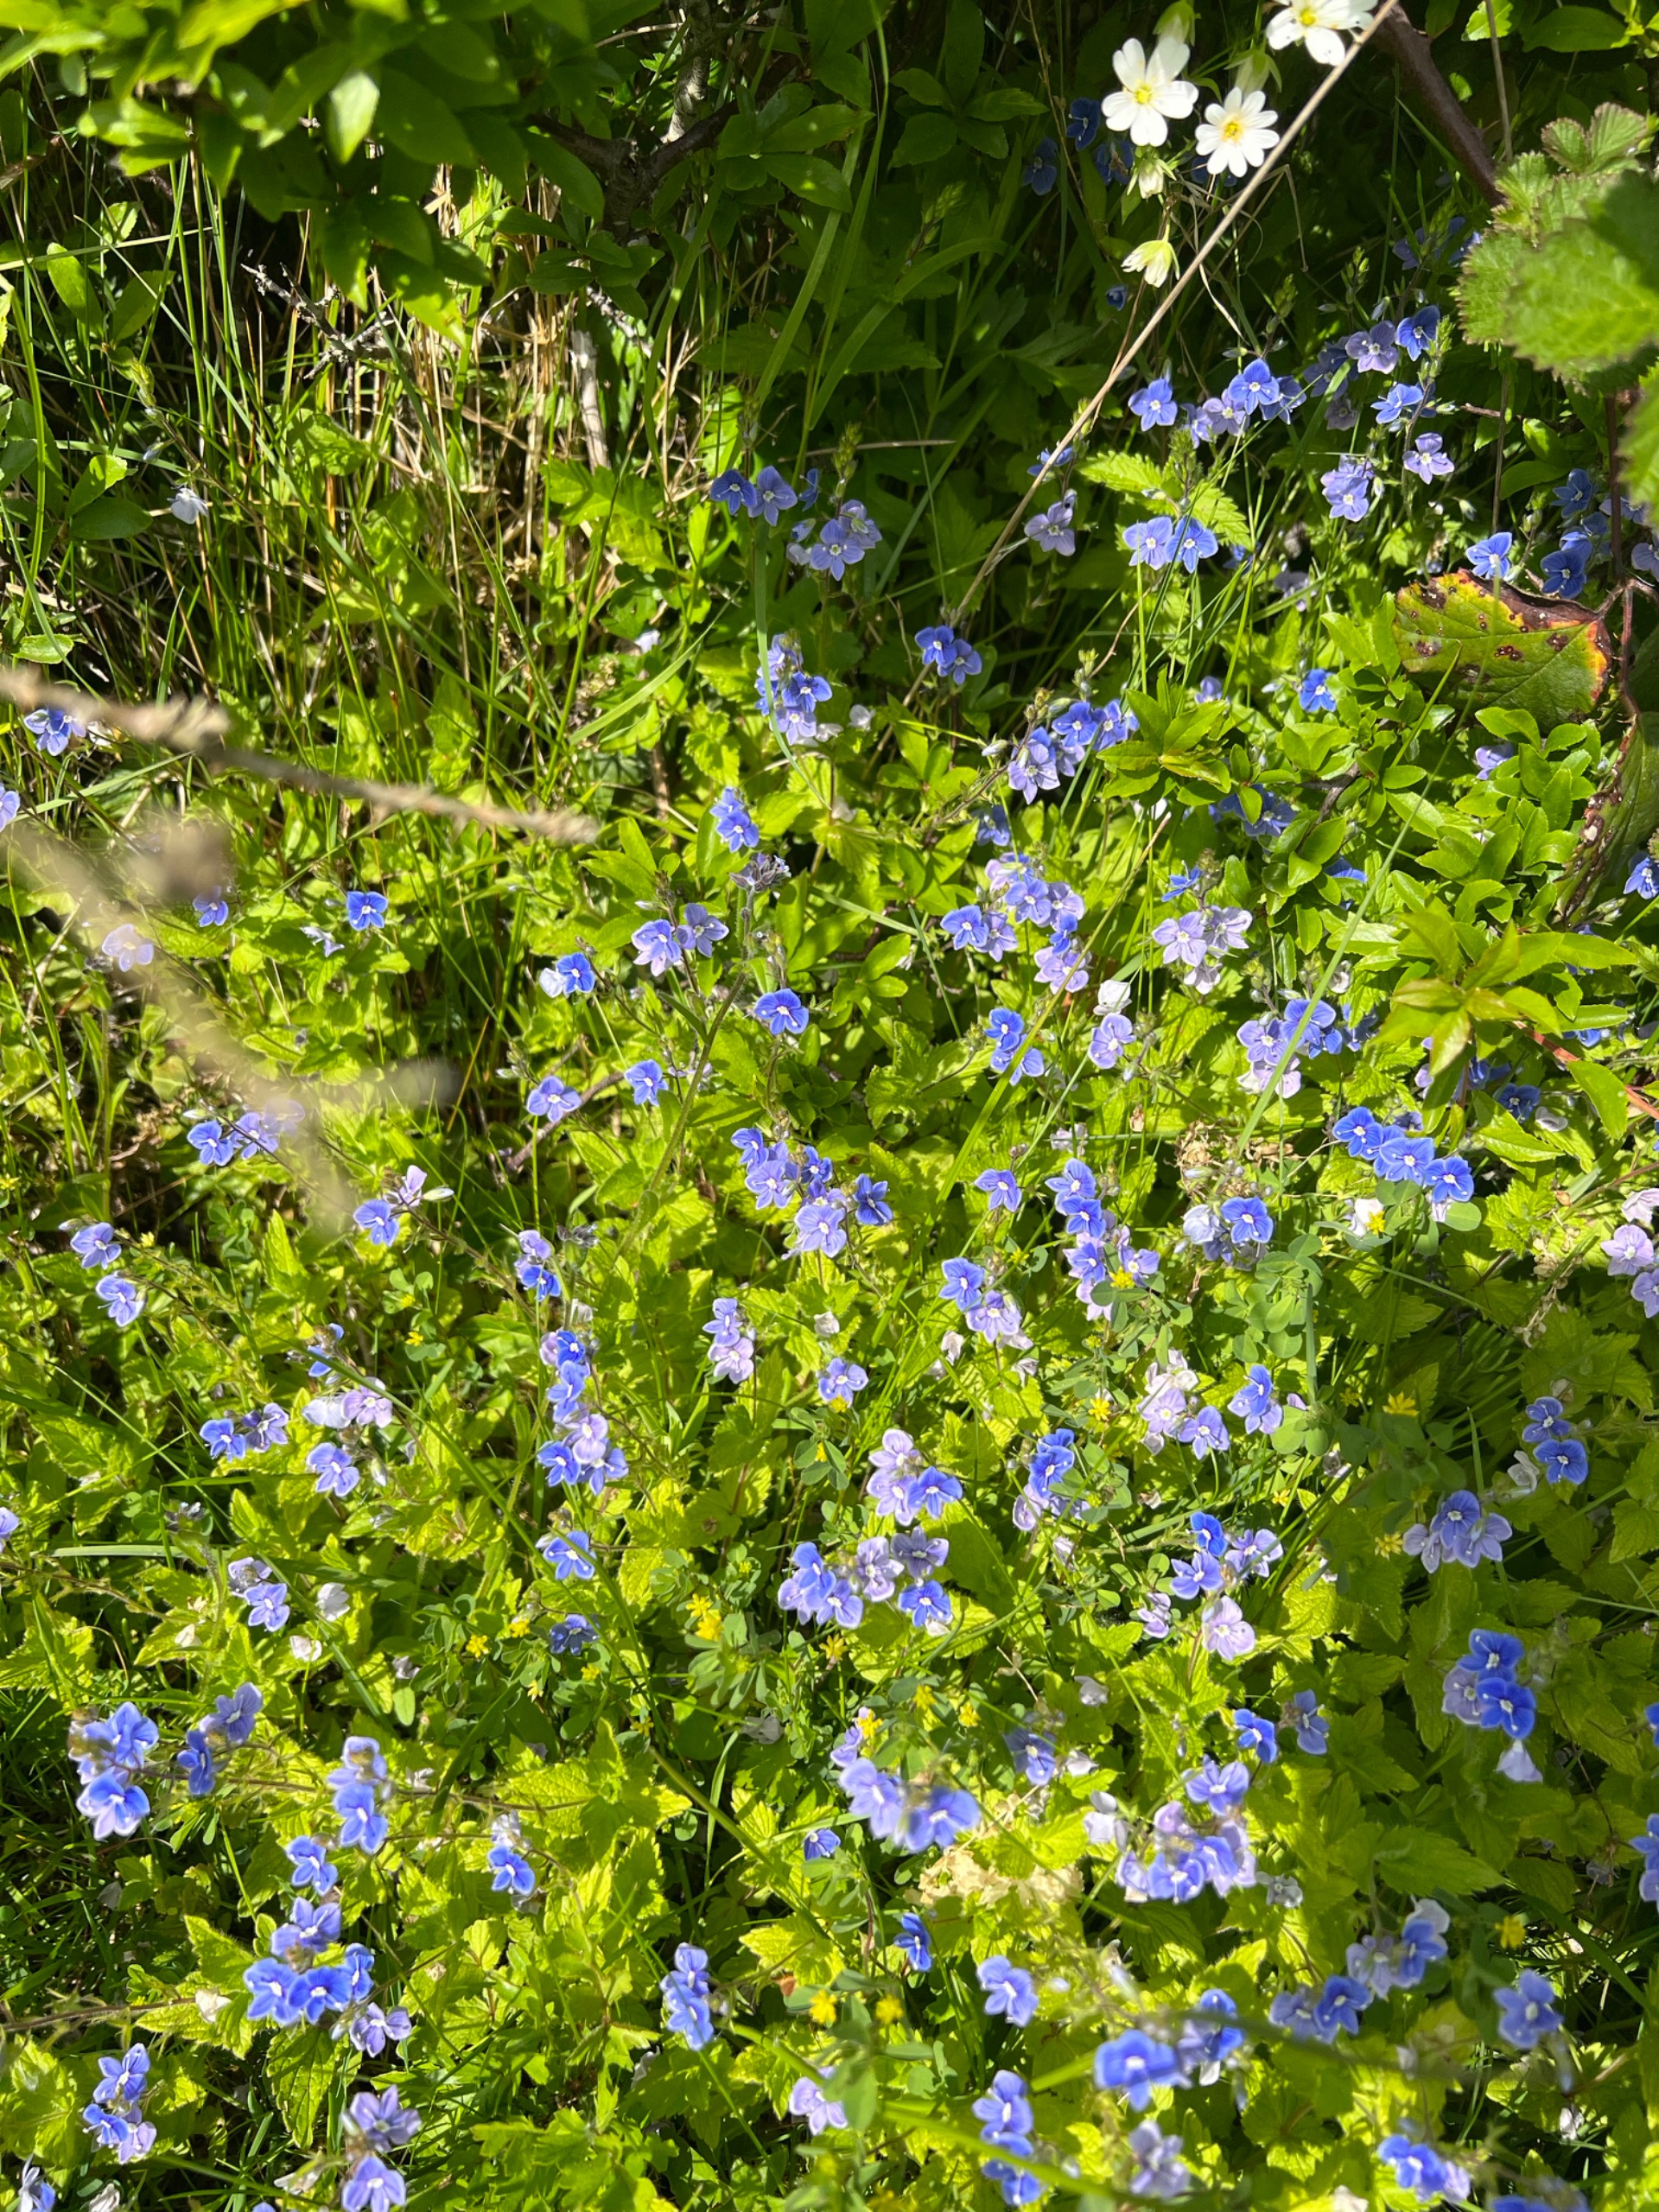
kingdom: Plantae
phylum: Tracheophyta
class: Magnoliopsida
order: Lamiales
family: Plantaginaceae
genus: Veronica
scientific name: Veronica chamaedrys
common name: Tveskægget ærenpris
